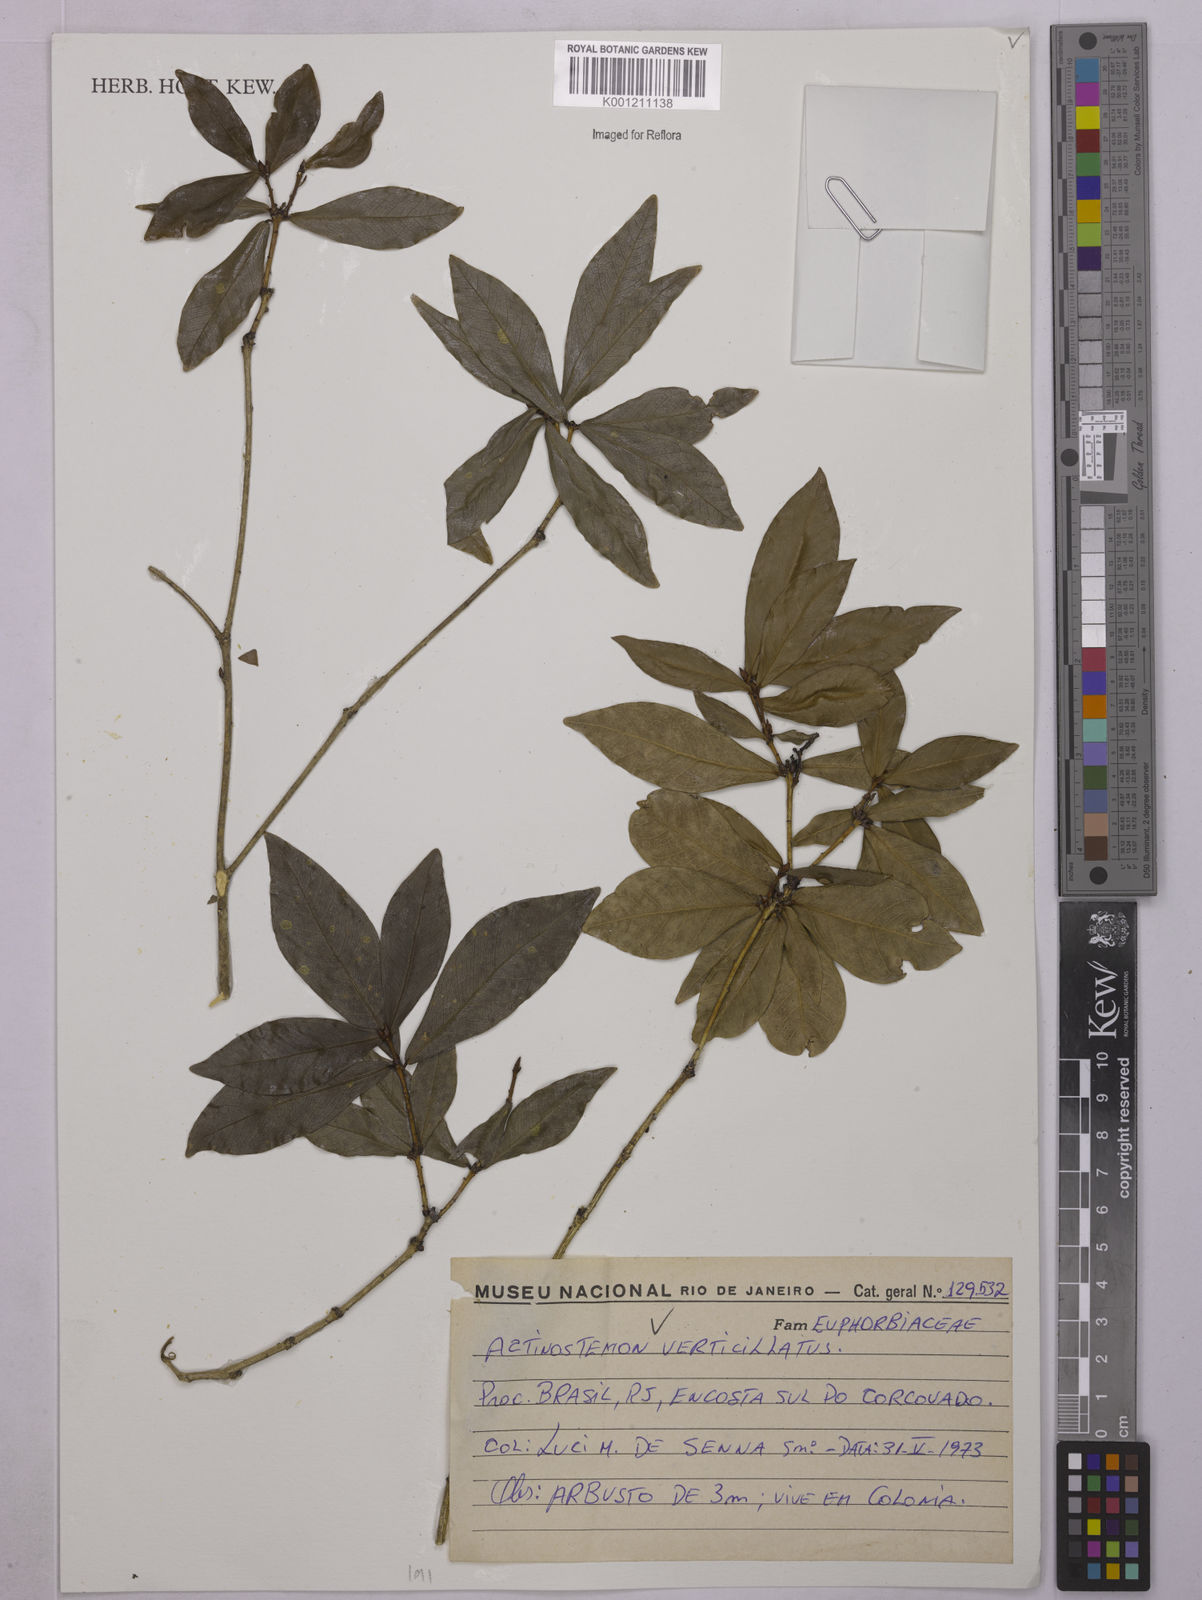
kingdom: Plantae
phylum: Tracheophyta
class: Magnoliopsida
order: Malpighiales
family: Euphorbiaceae
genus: Actinostemon
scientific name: Actinostemon verticillatus
